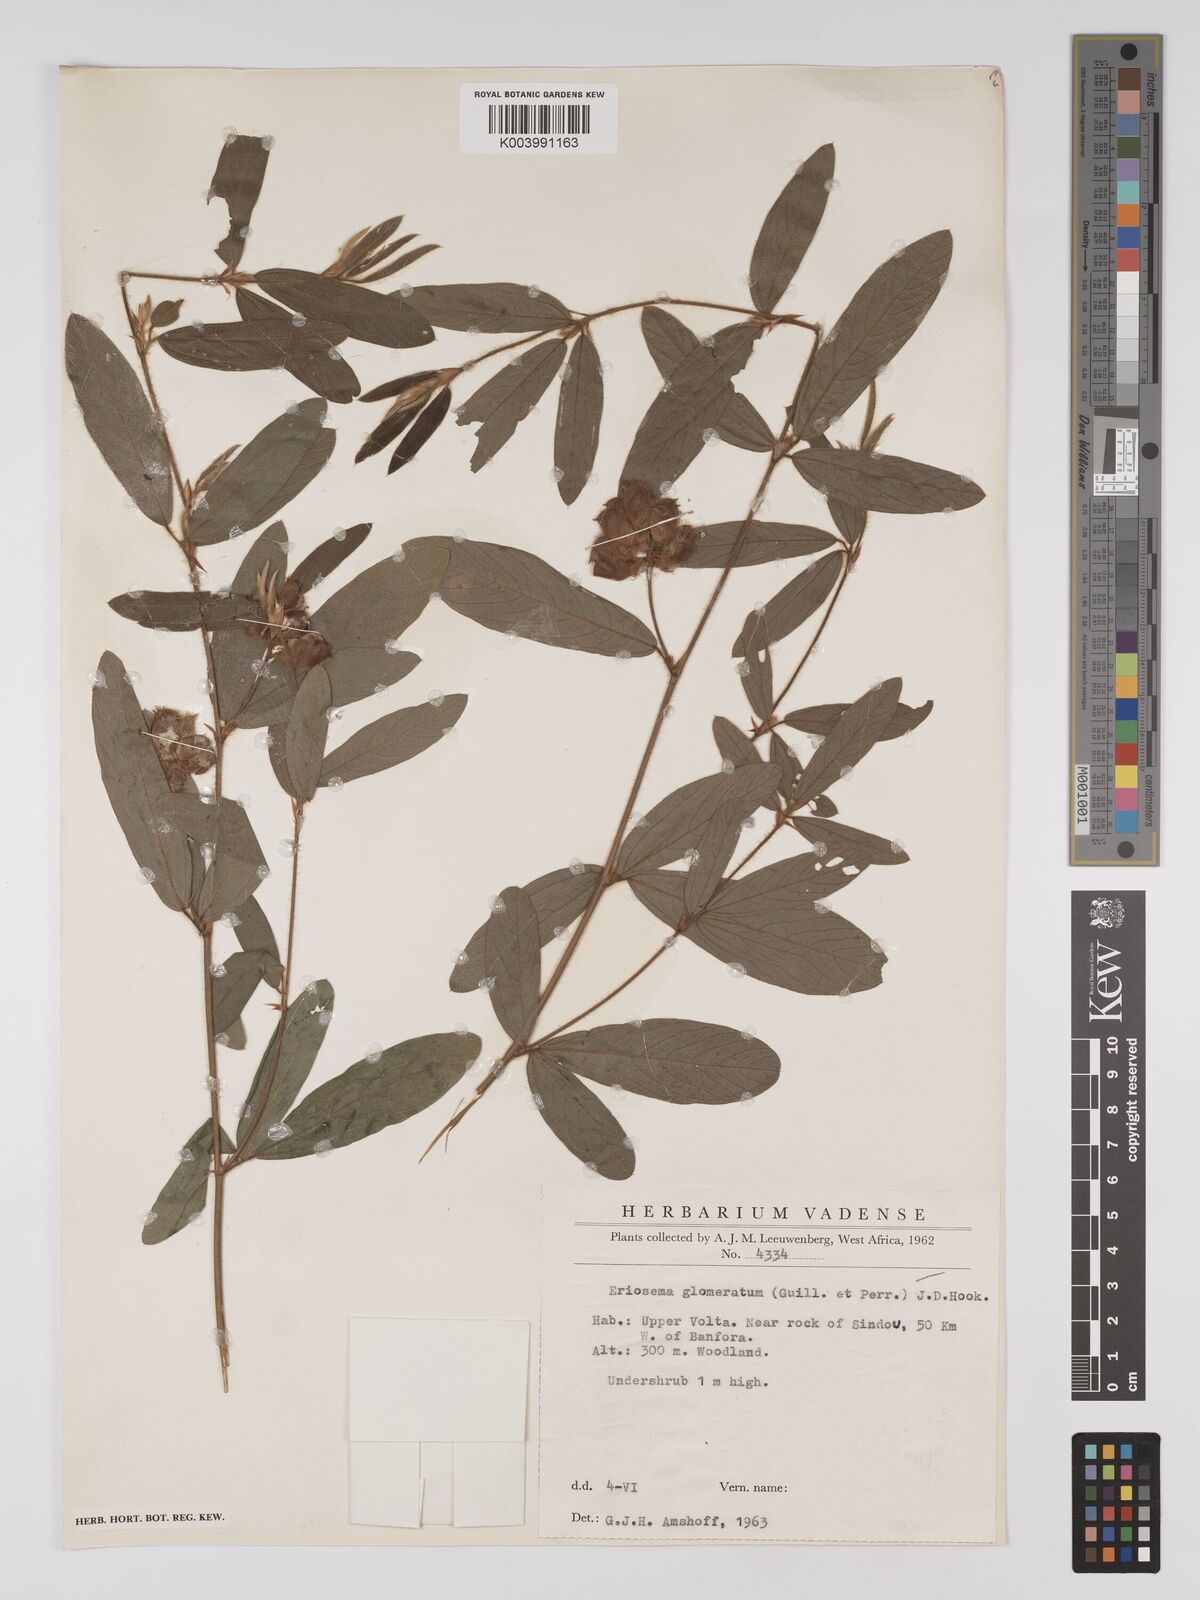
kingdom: Plantae
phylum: Tracheophyta
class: Magnoliopsida
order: Fabales
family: Fabaceae
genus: Eriosema
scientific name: Eriosema glomeratum
